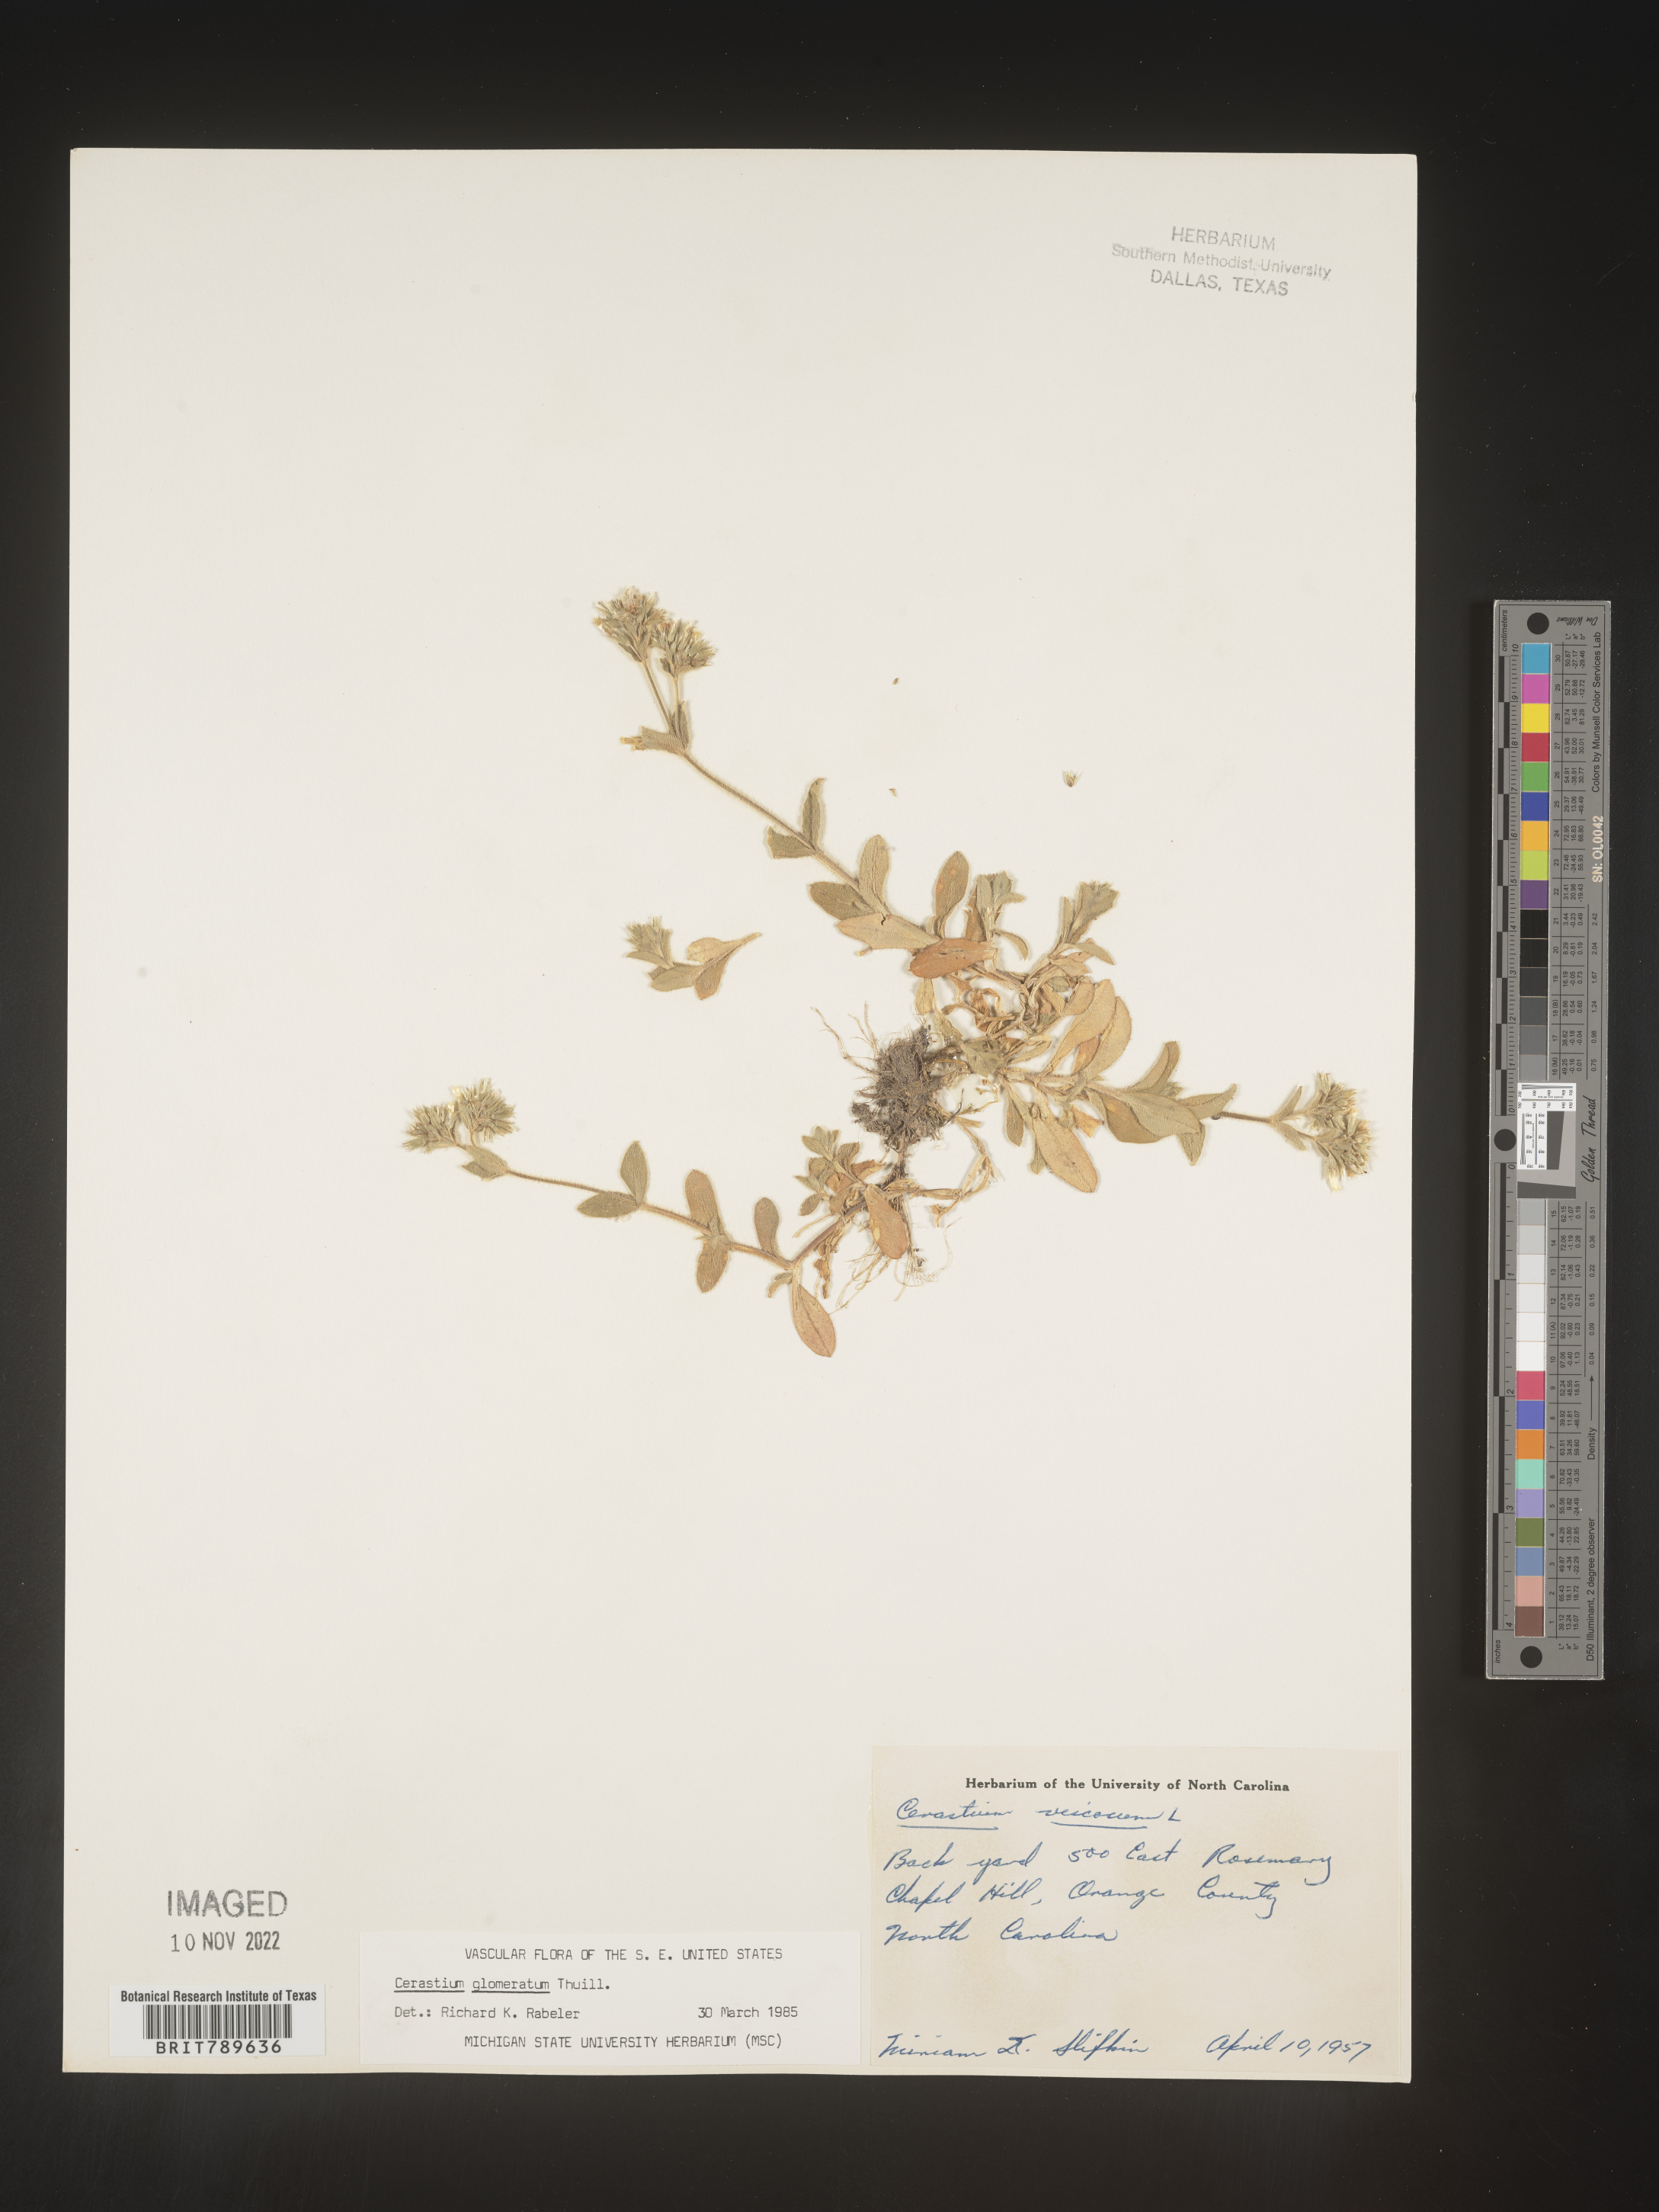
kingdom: Plantae
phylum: Tracheophyta
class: Magnoliopsida
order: Caryophyllales
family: Caryophyllaceae
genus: Cerastium
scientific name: Cerastium glomeratum
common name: Sticky chickweed
